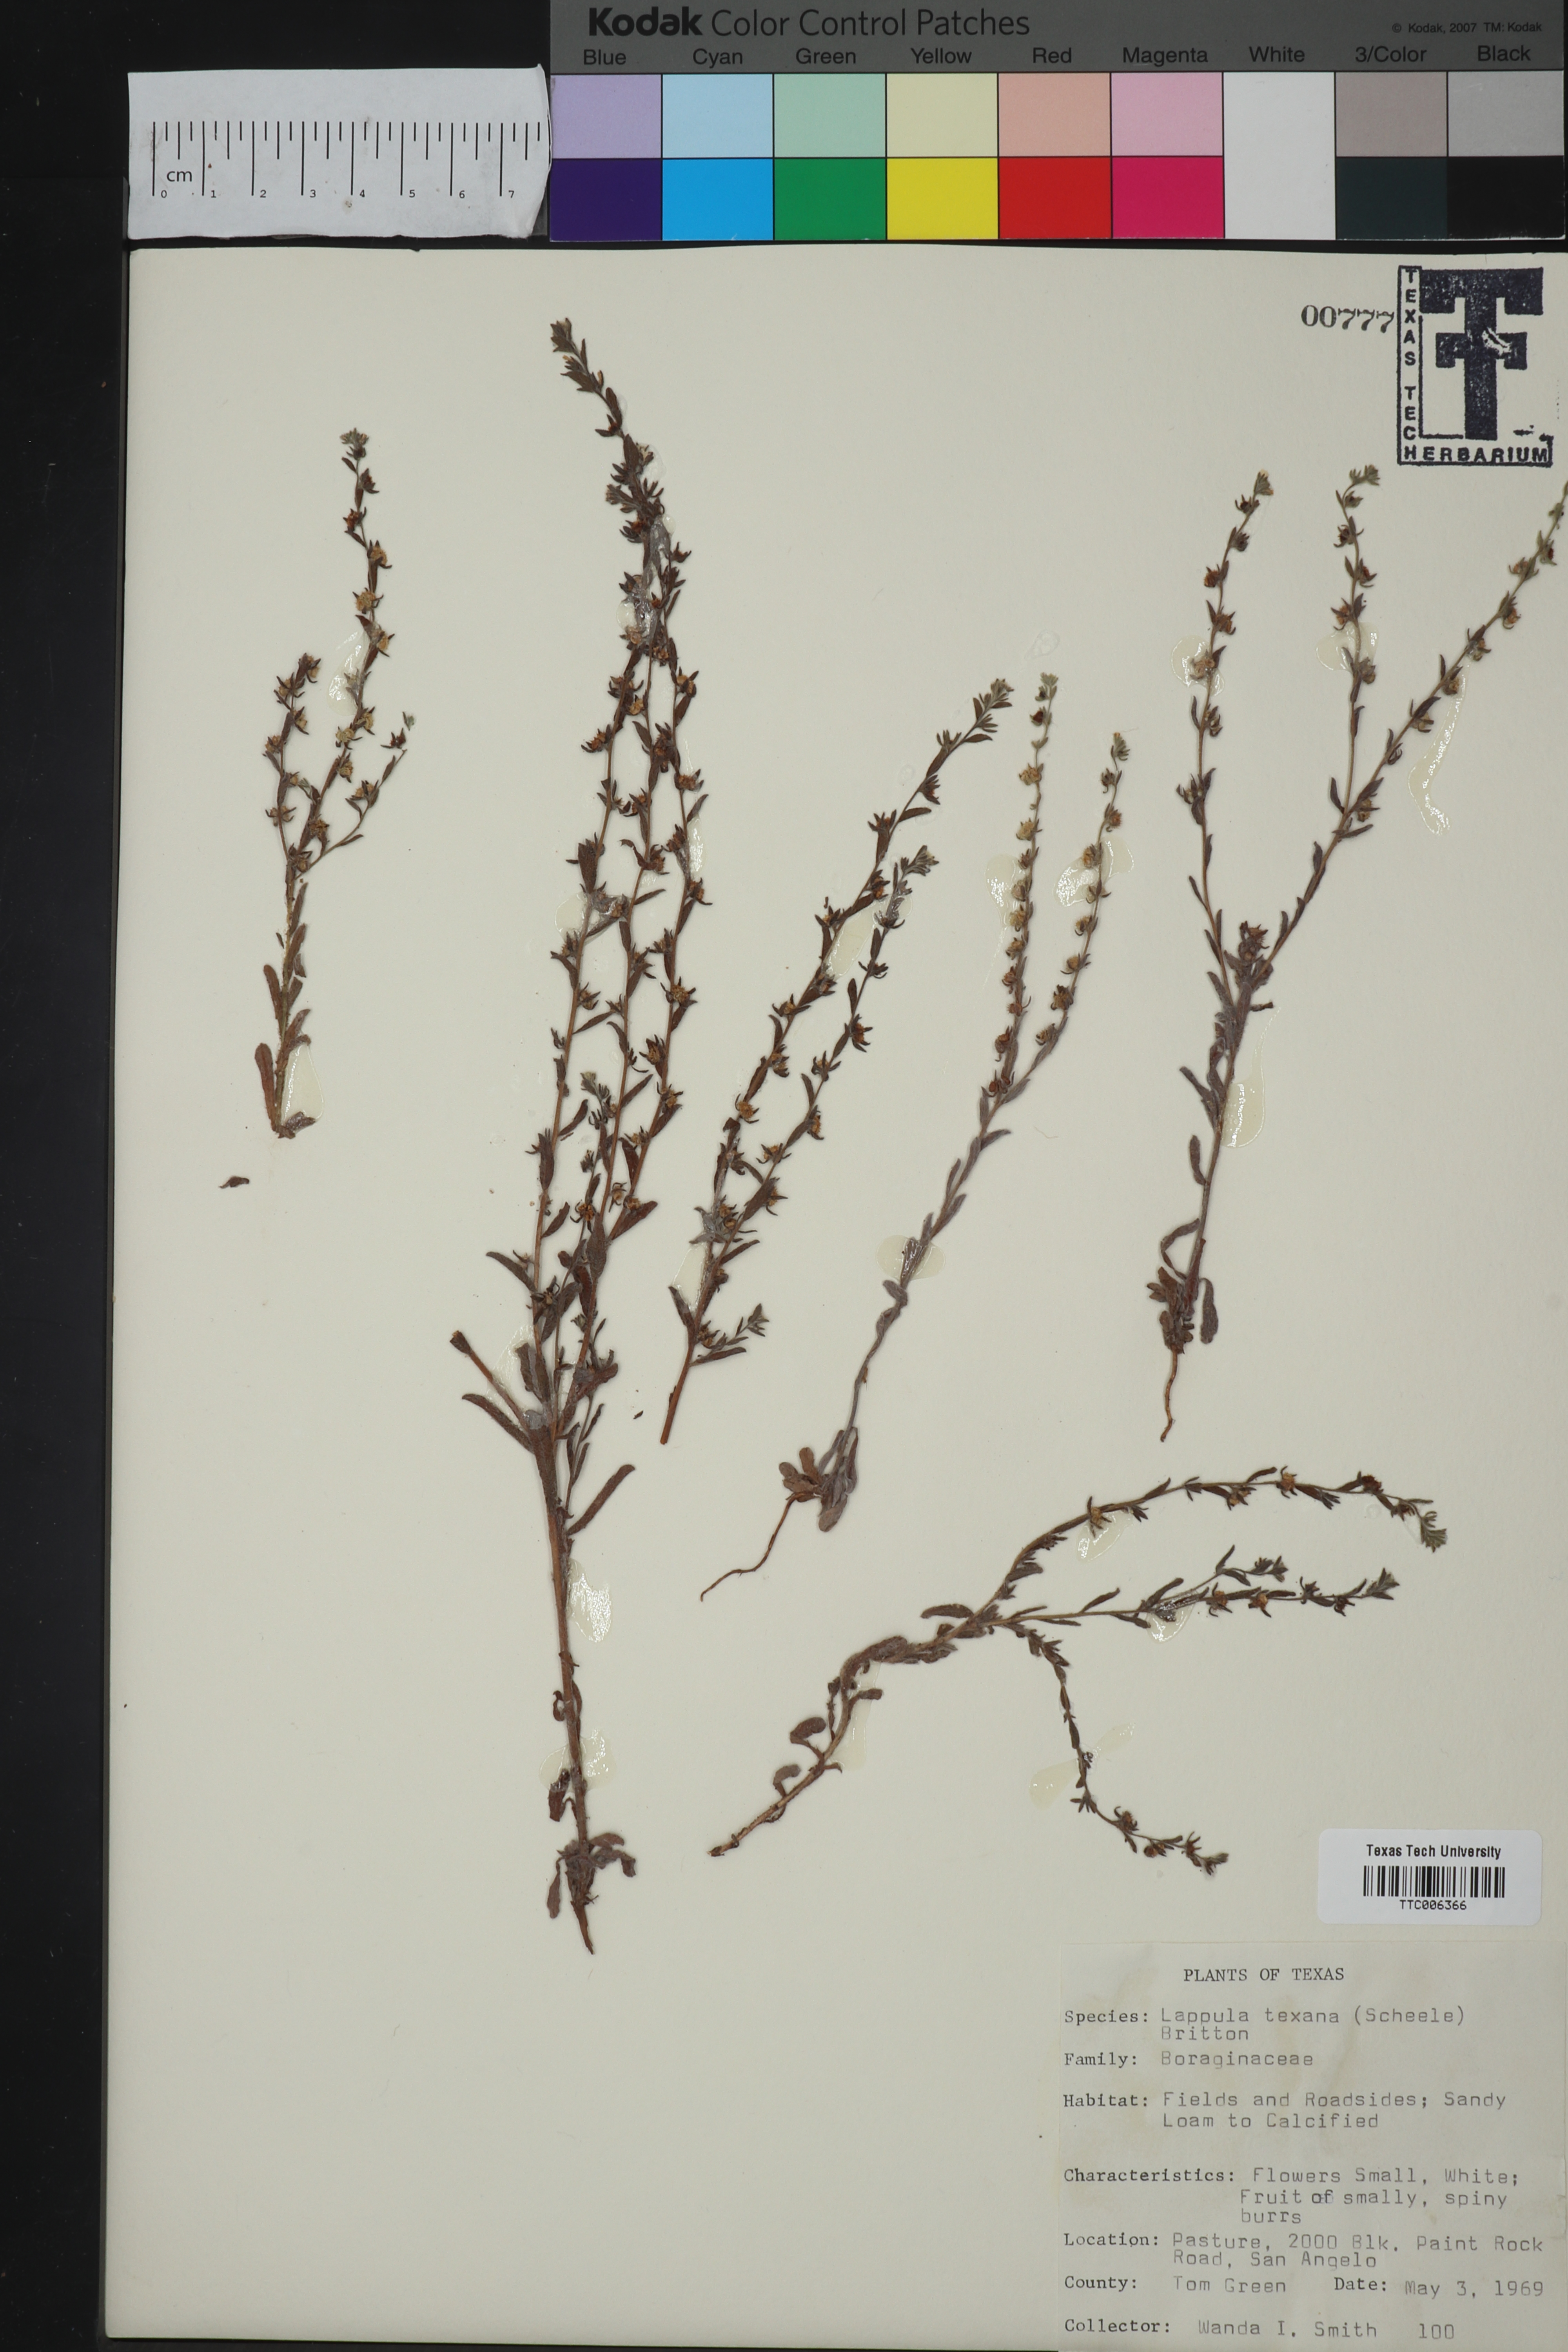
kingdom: Plantae
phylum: Tracheophyta
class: Magnoliopsida
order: Boraginales
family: Boraginaceae
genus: Lappula
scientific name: Lappula occidentalis
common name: Western stickseed
